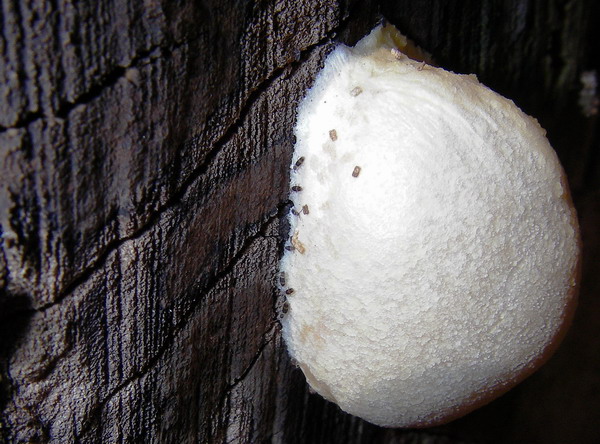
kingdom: Protozoa
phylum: Mycetozoa
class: Myxomycetes
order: Cribrariales
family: Tubiferaceae
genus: Reticularia
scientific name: Reticularia lycoperdon
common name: skinnende støvpude
